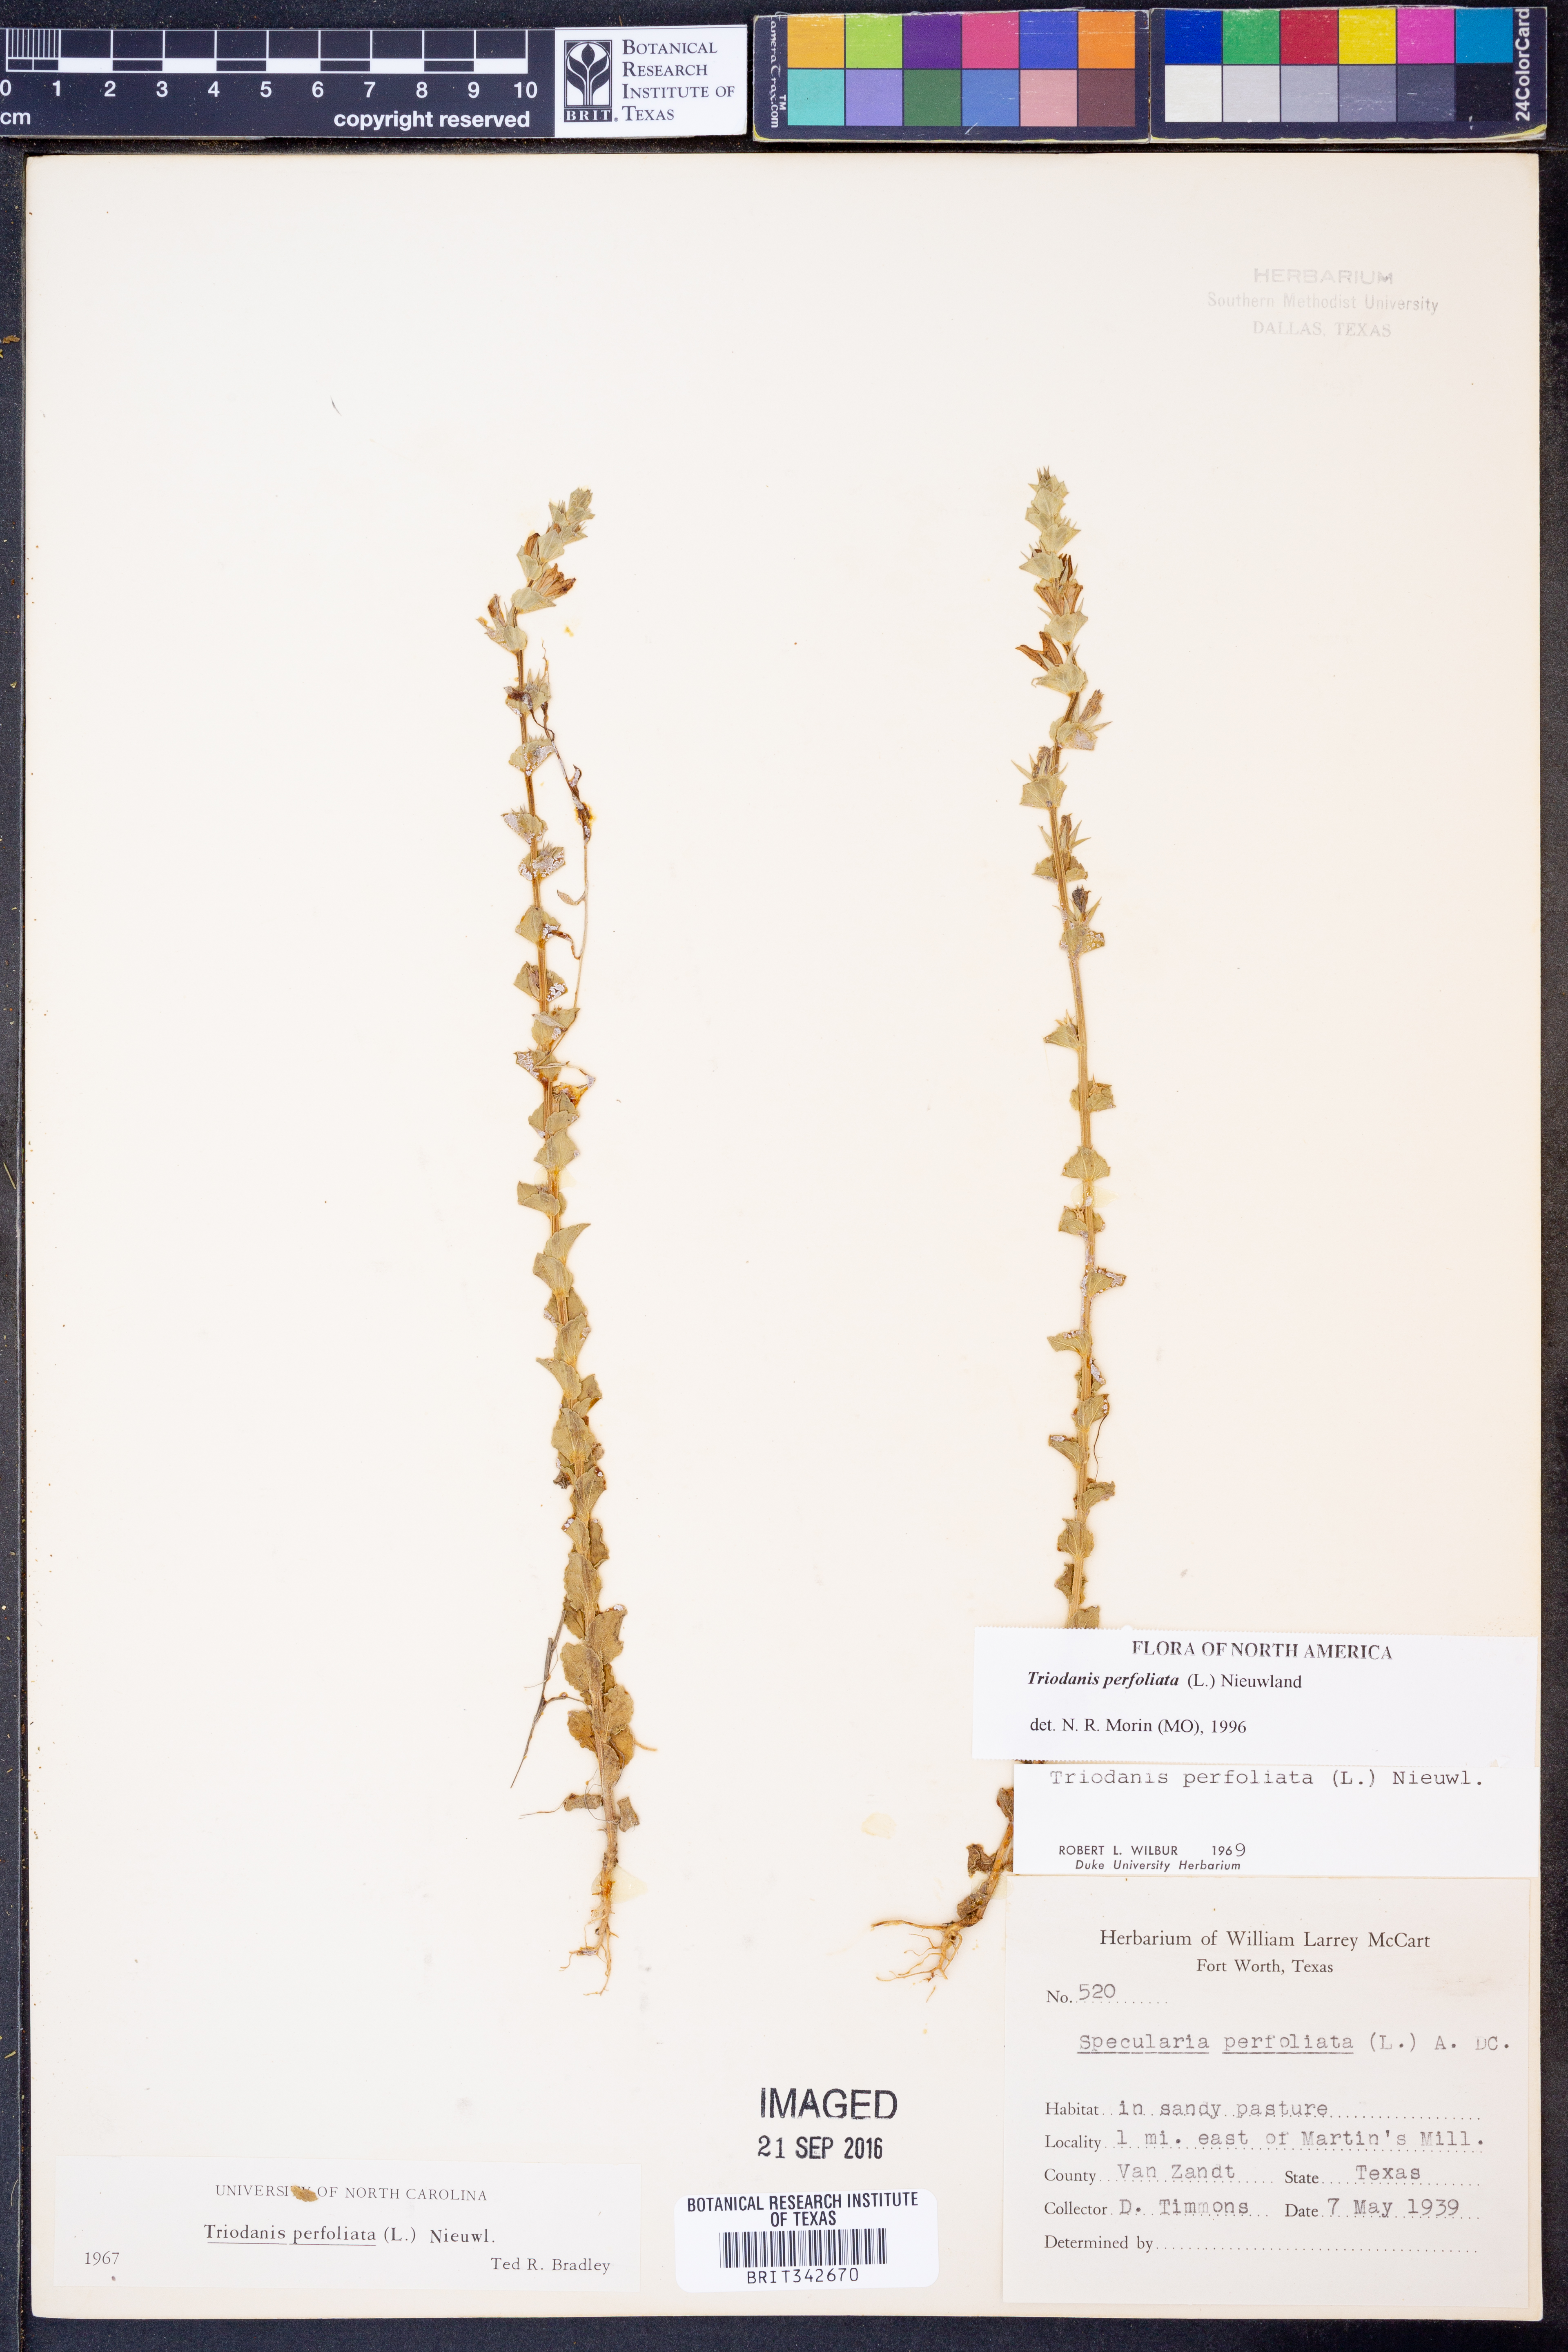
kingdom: Plantae
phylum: Tracheophyta
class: Magnoliopsida
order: Asterales
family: Campanulaceae
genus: Triodanis
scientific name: Triodanis perfoliata
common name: Clasping venus' looking-glass
